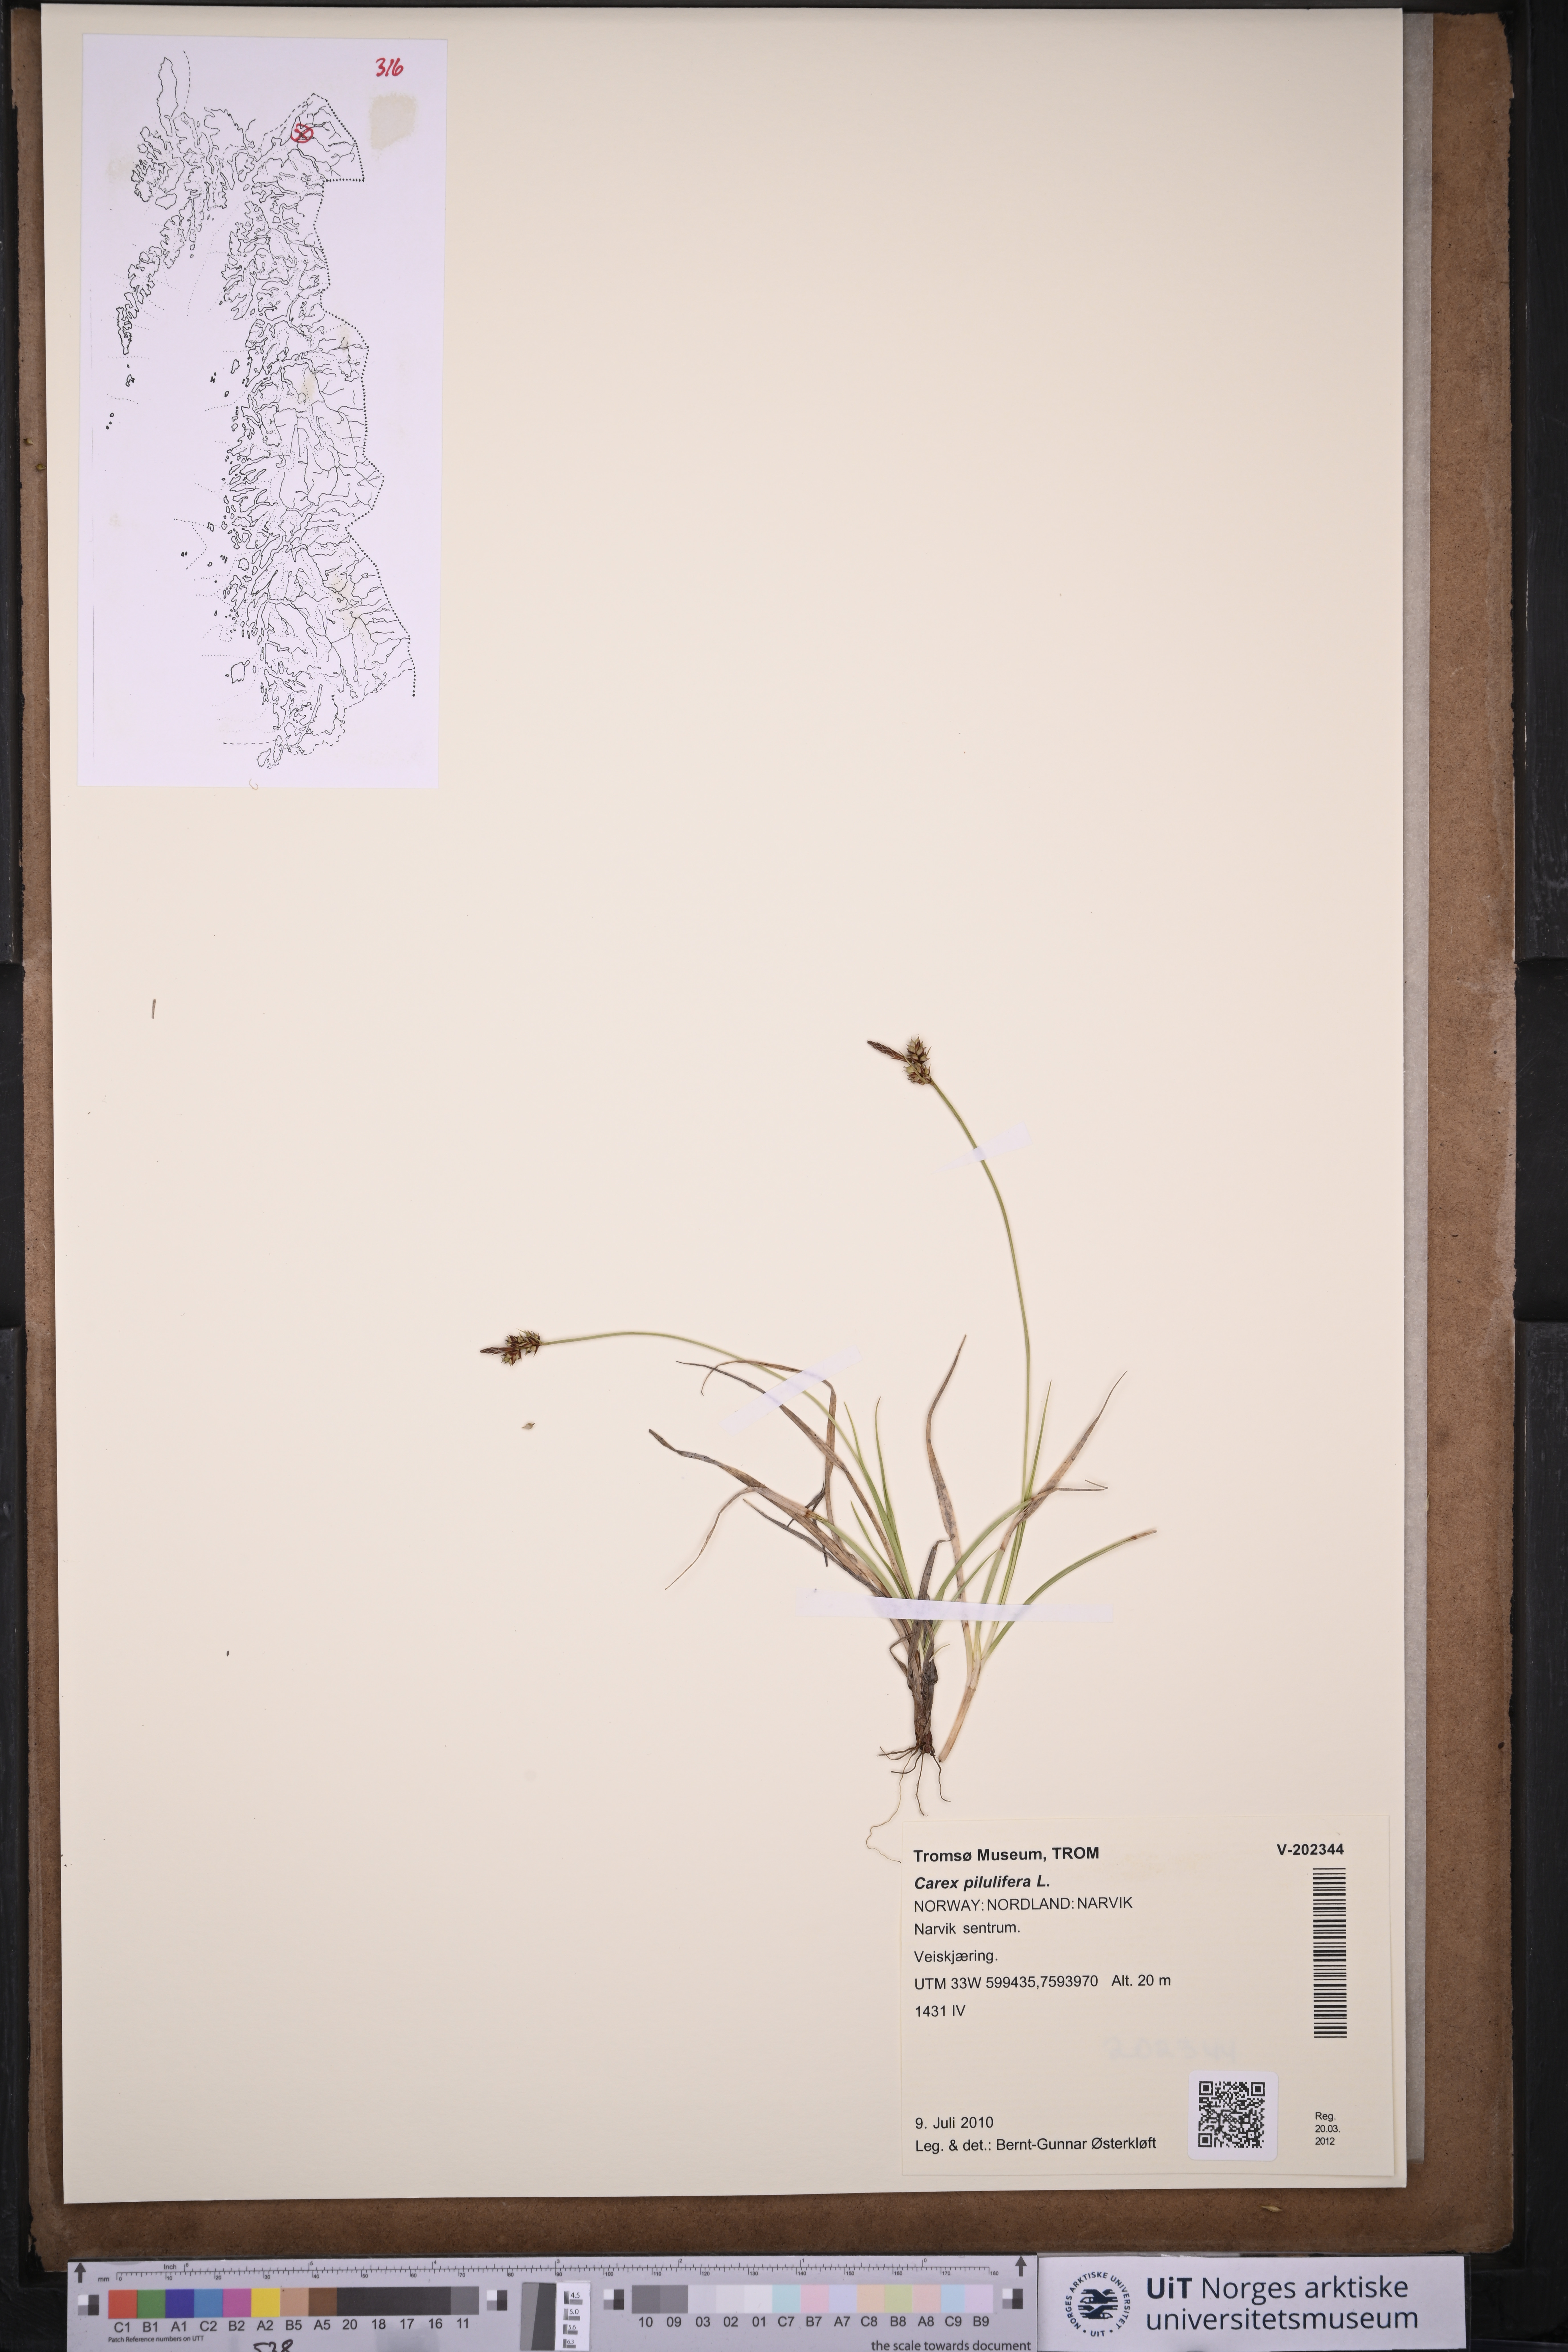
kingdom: Plantae
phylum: Tracheophyta
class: Liliopsida
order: Poales
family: Cyperaceae
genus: Carex
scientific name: Carex pilulifera
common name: Pill sedge
